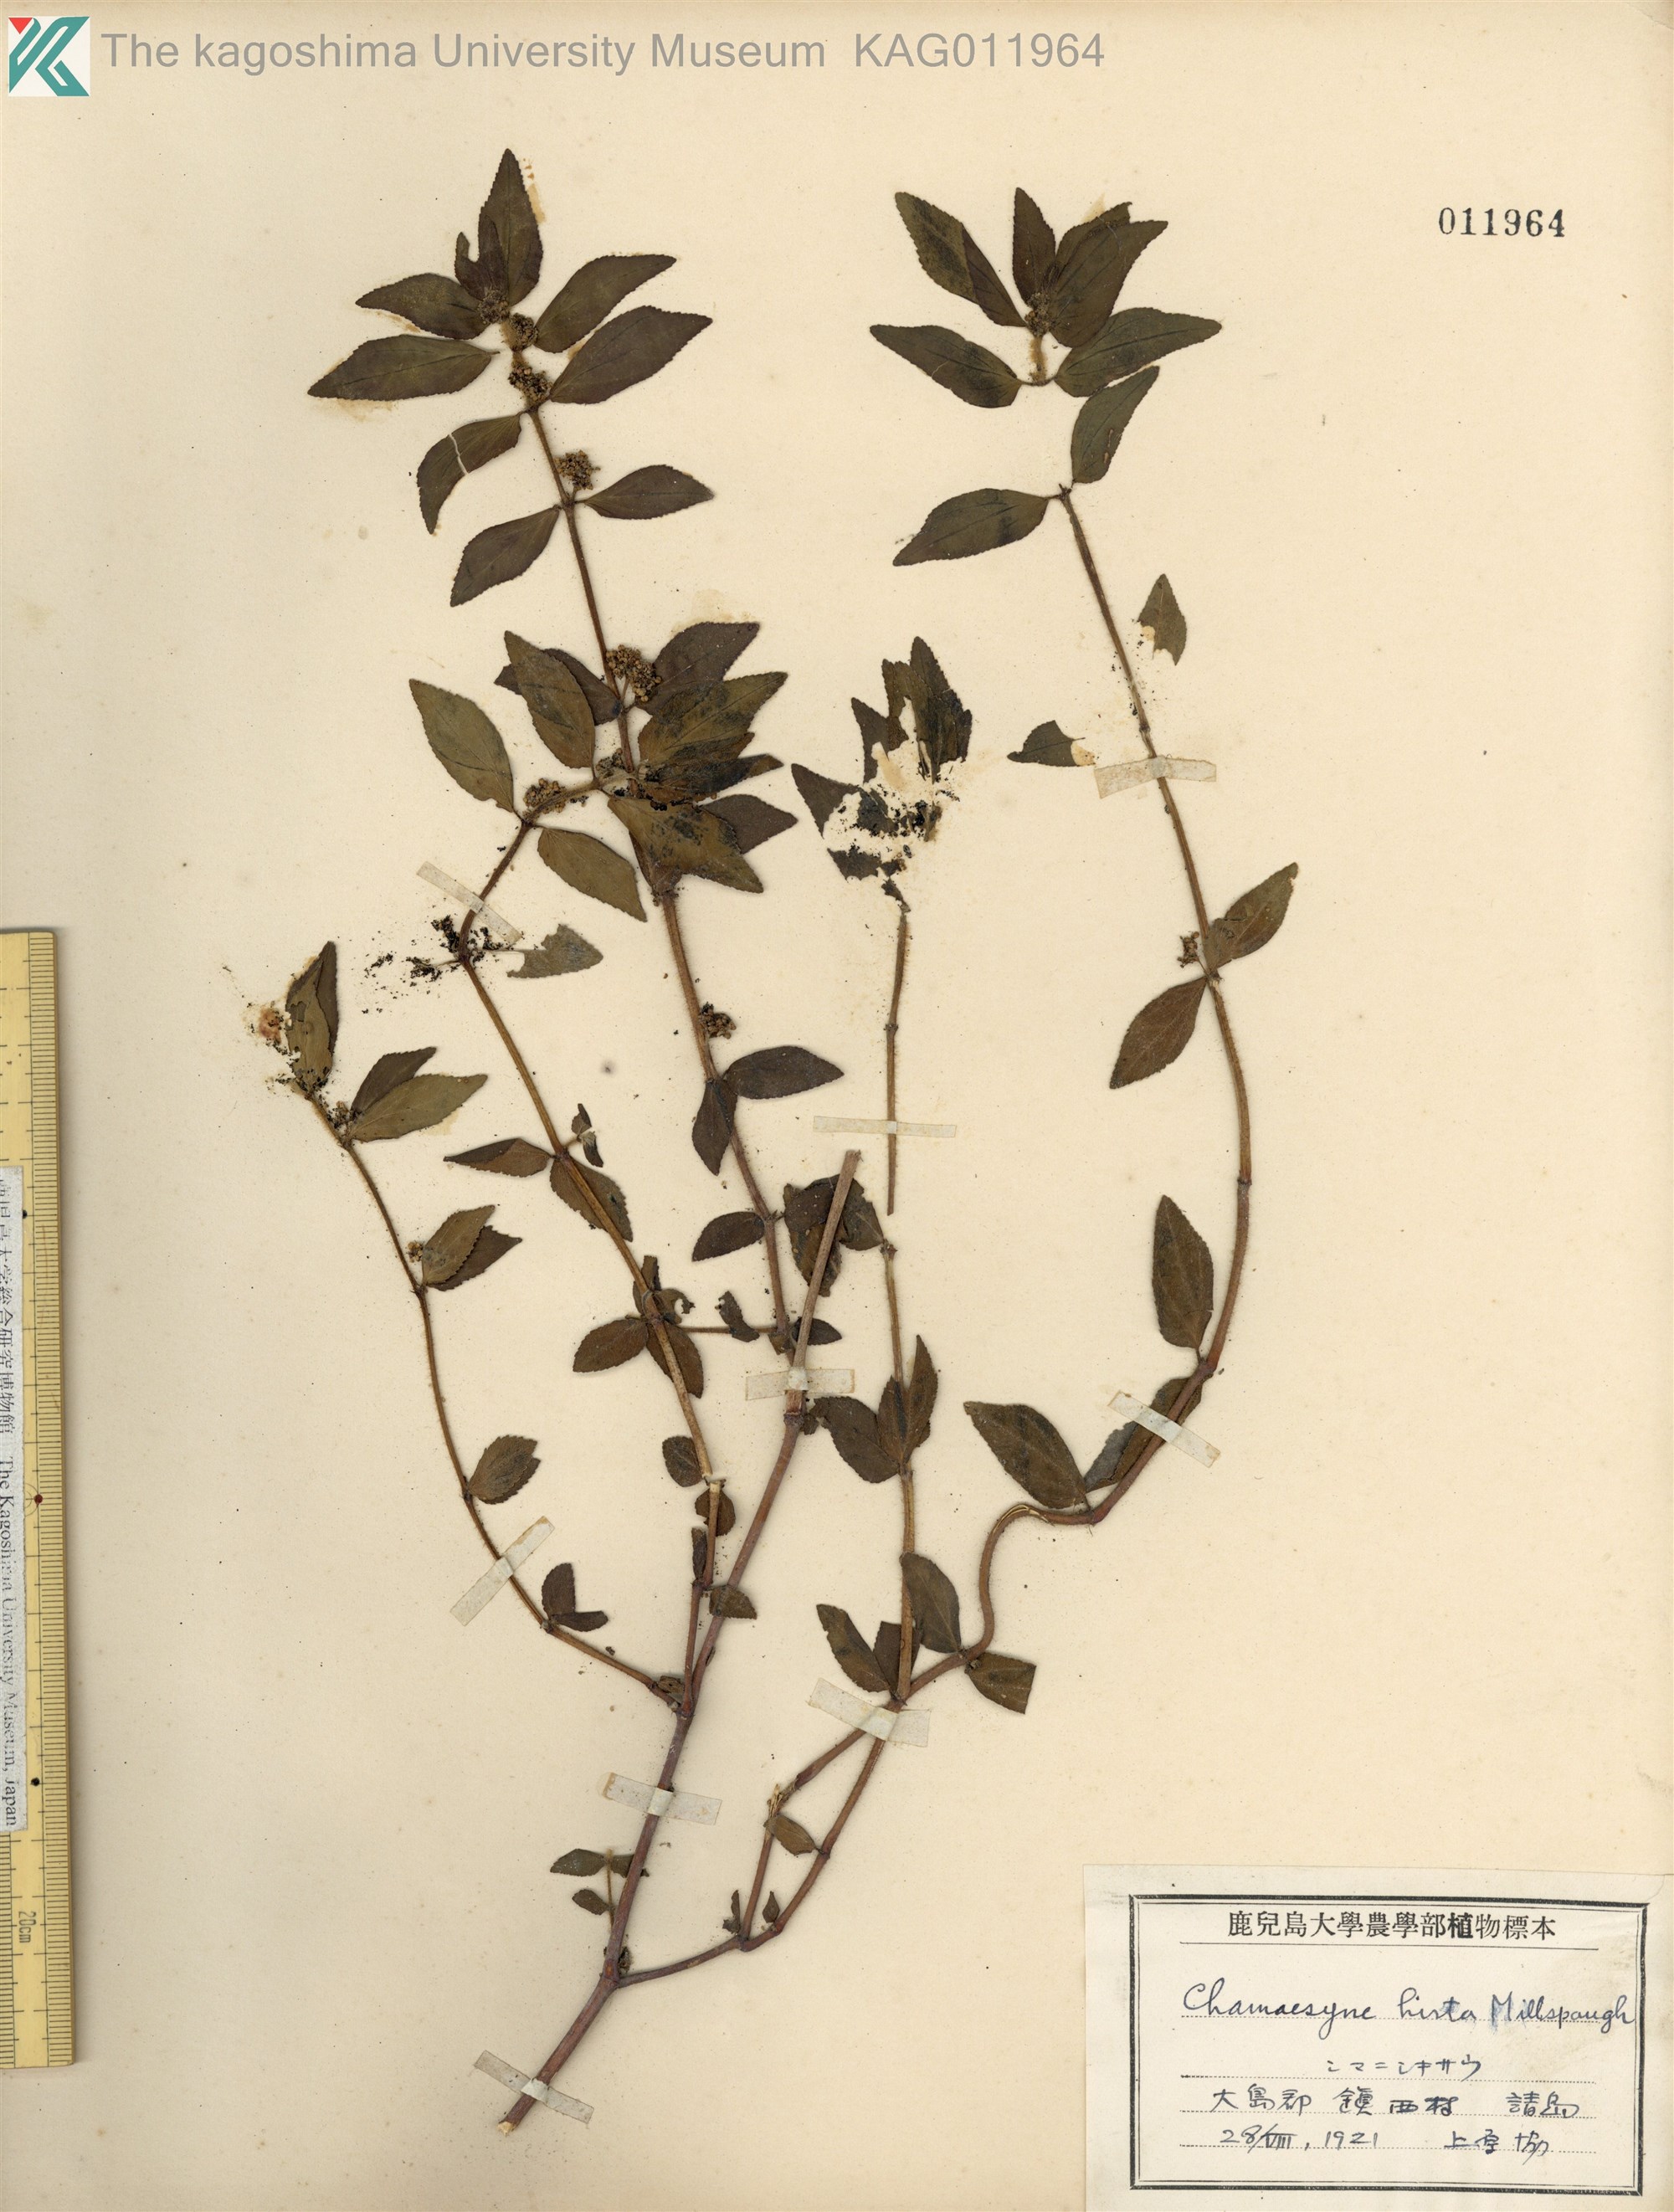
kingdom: Plantae
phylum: Tracheophyta
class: Magnoliopsida
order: Malpighiales
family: Euphorbiaceae
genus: Euphorbia
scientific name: Euphorbia hirta
